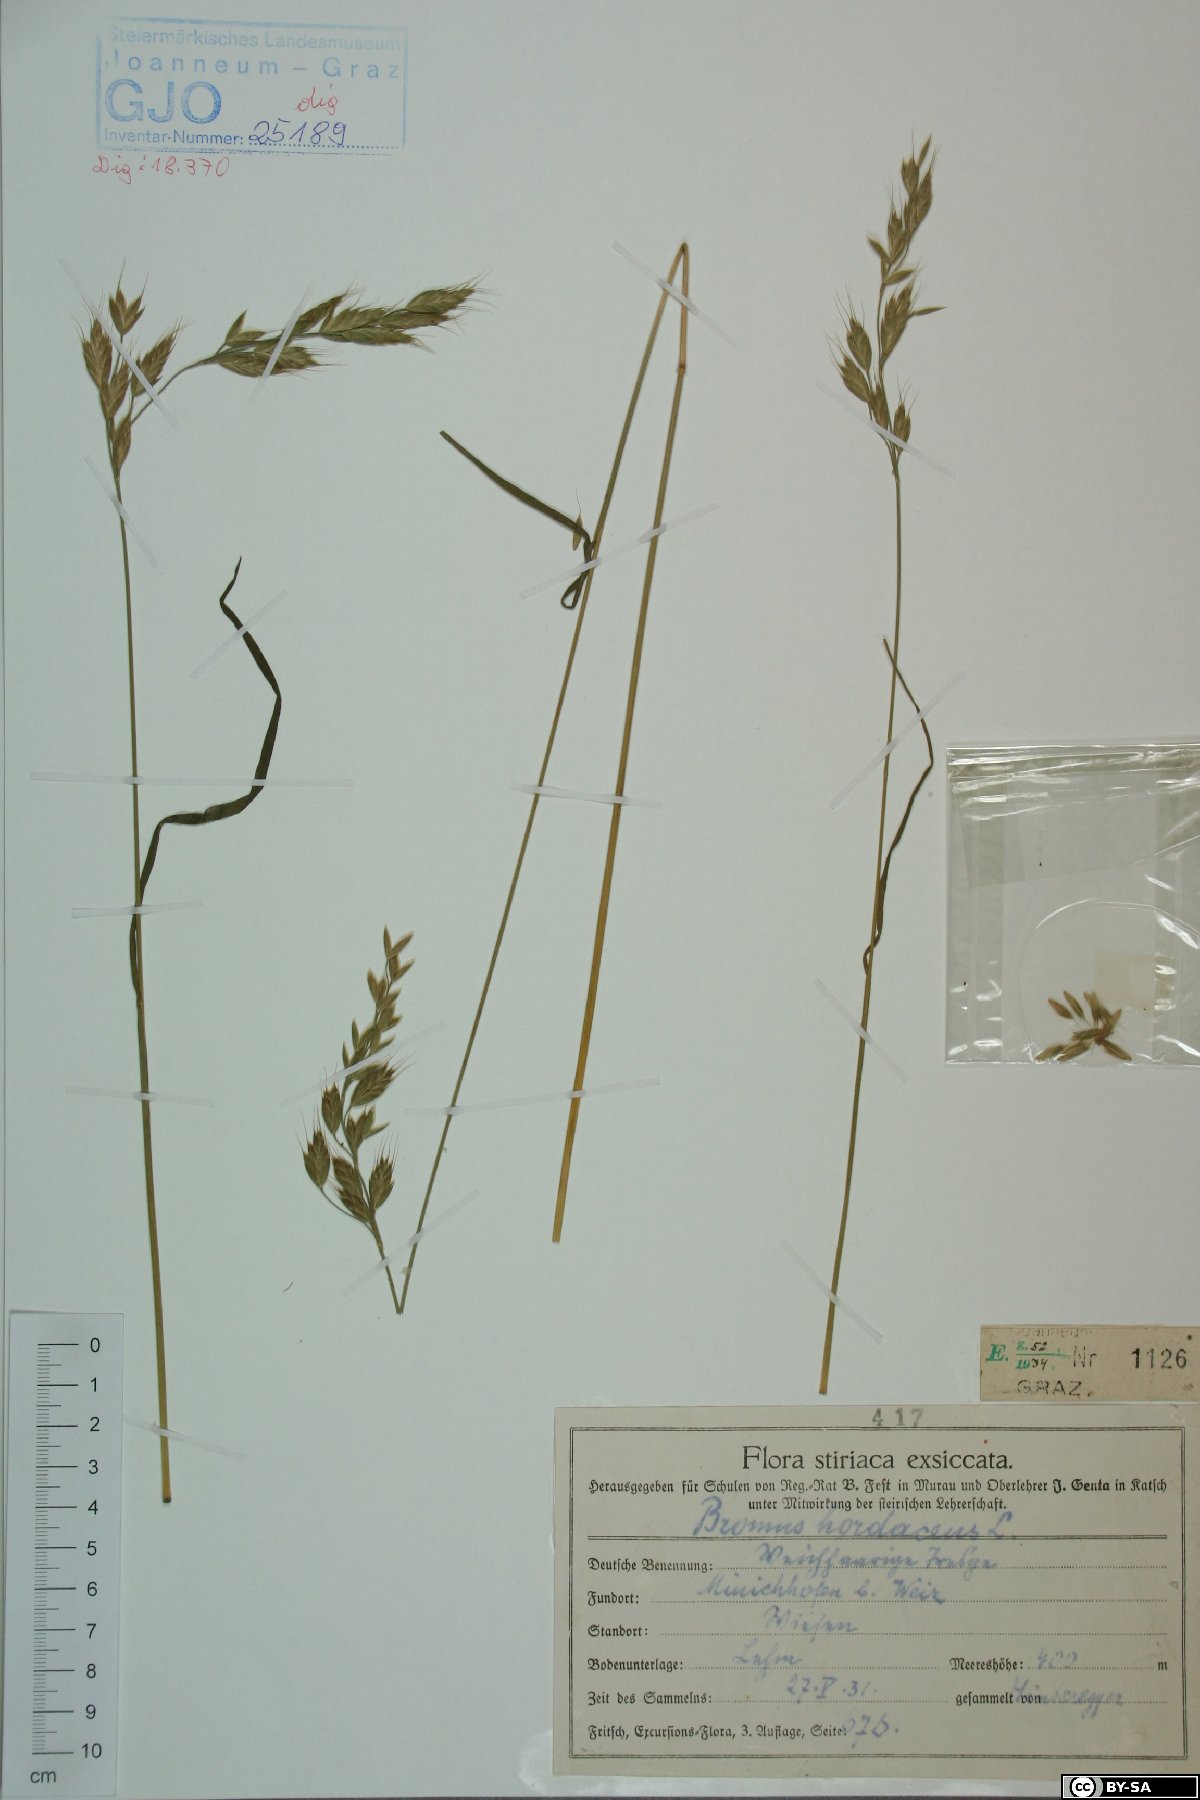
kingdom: Plantae
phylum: Tracheophyta
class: Liliopsida
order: Poales
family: Poaceae
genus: Bromus
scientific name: Bromus hordeaceus
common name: Soft brome
